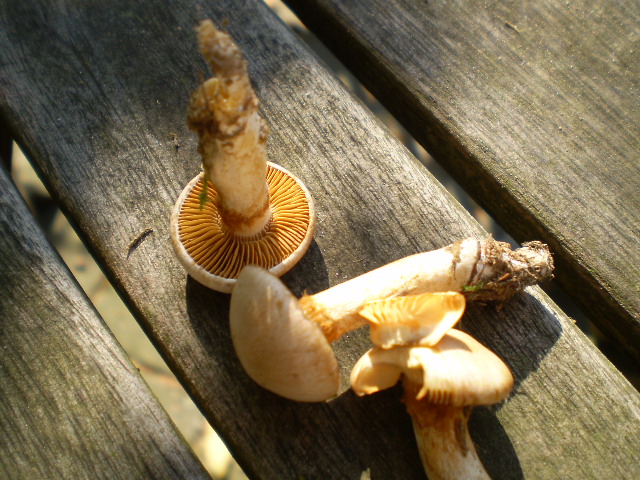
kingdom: Fungi
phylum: Basidiomycota
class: Agaricomycetes
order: Agaricales
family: Cortinariaceae
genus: Thaxterogaster
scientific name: Thaxterogaster barbatus
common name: elfenbens-slørhat
